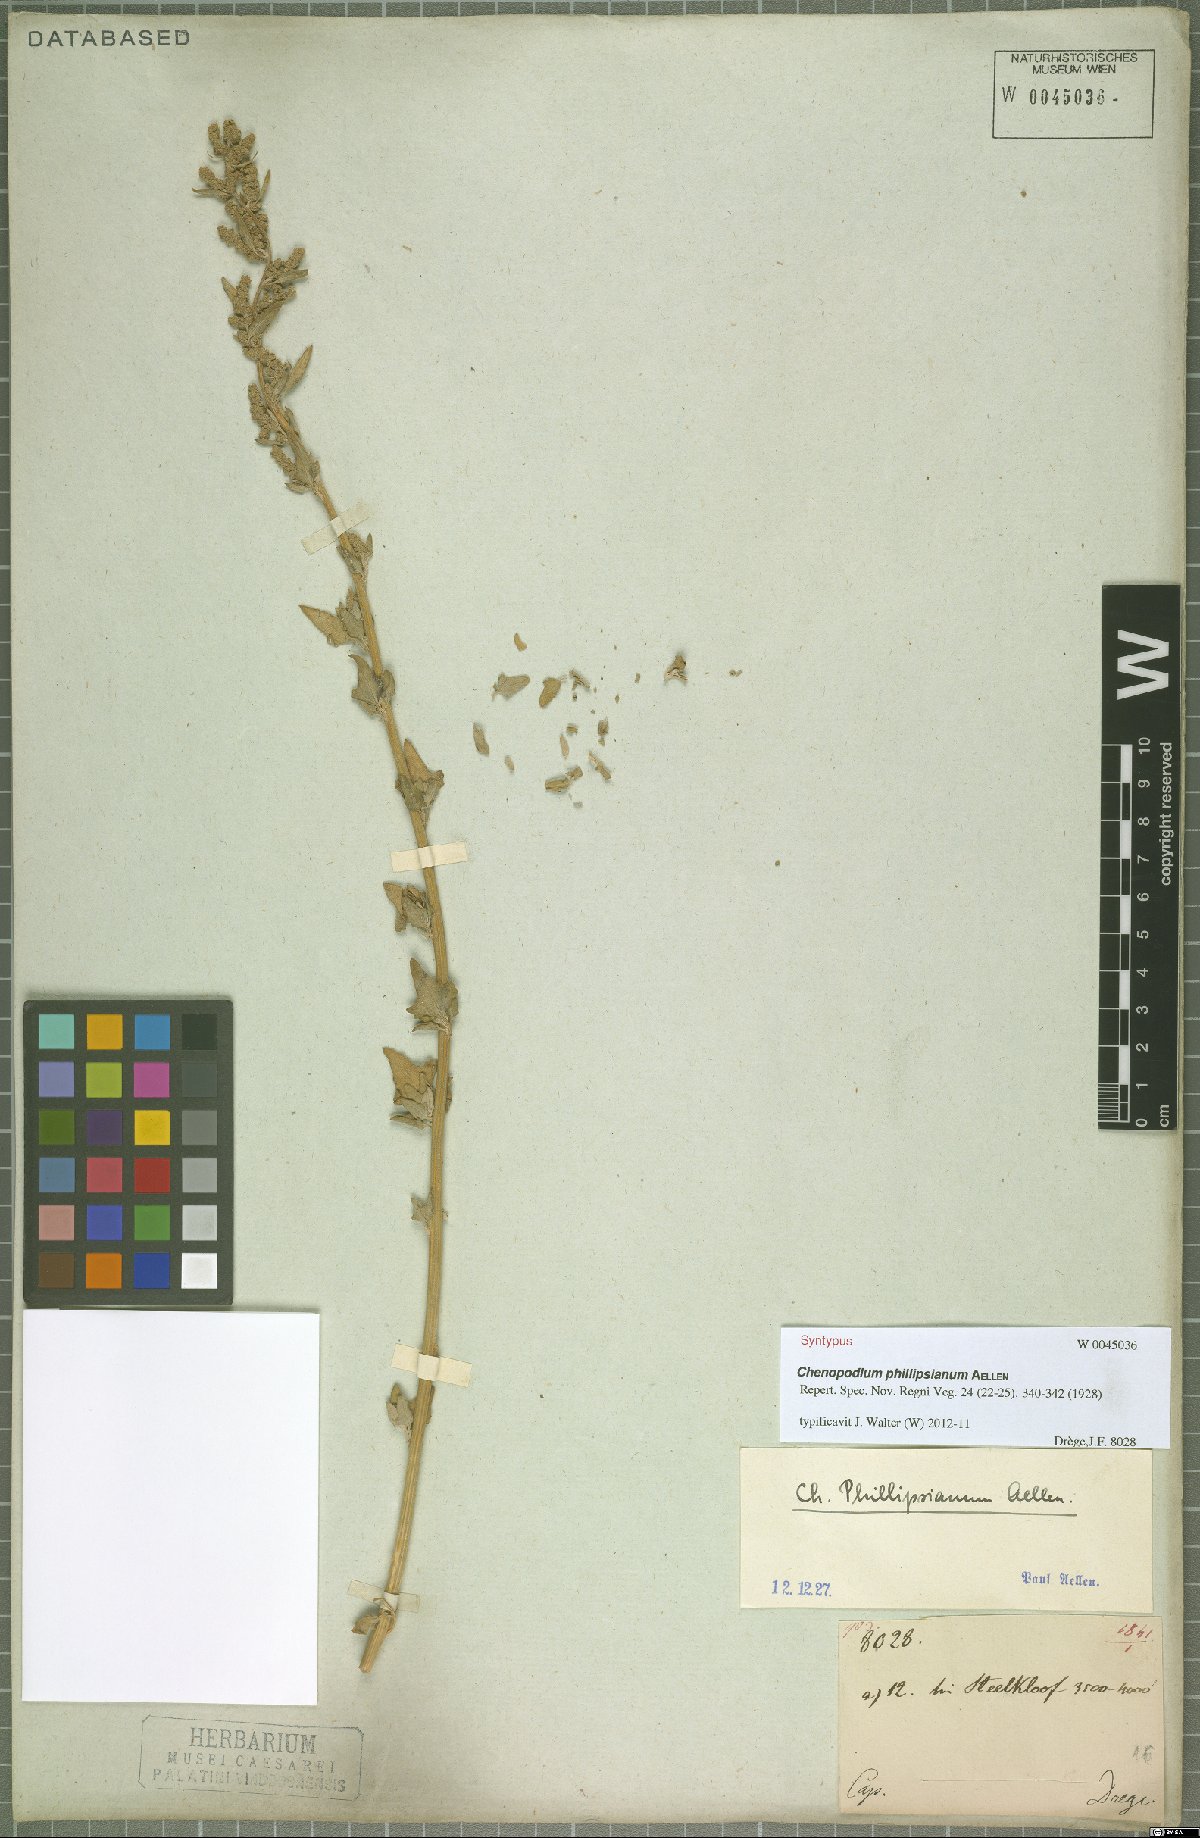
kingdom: Plantae
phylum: Tracheophyta
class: Magnoliopsida
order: Caryophyllales
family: Amaranthaceae
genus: Chenopodium
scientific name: Chenopodium phillipsianum
